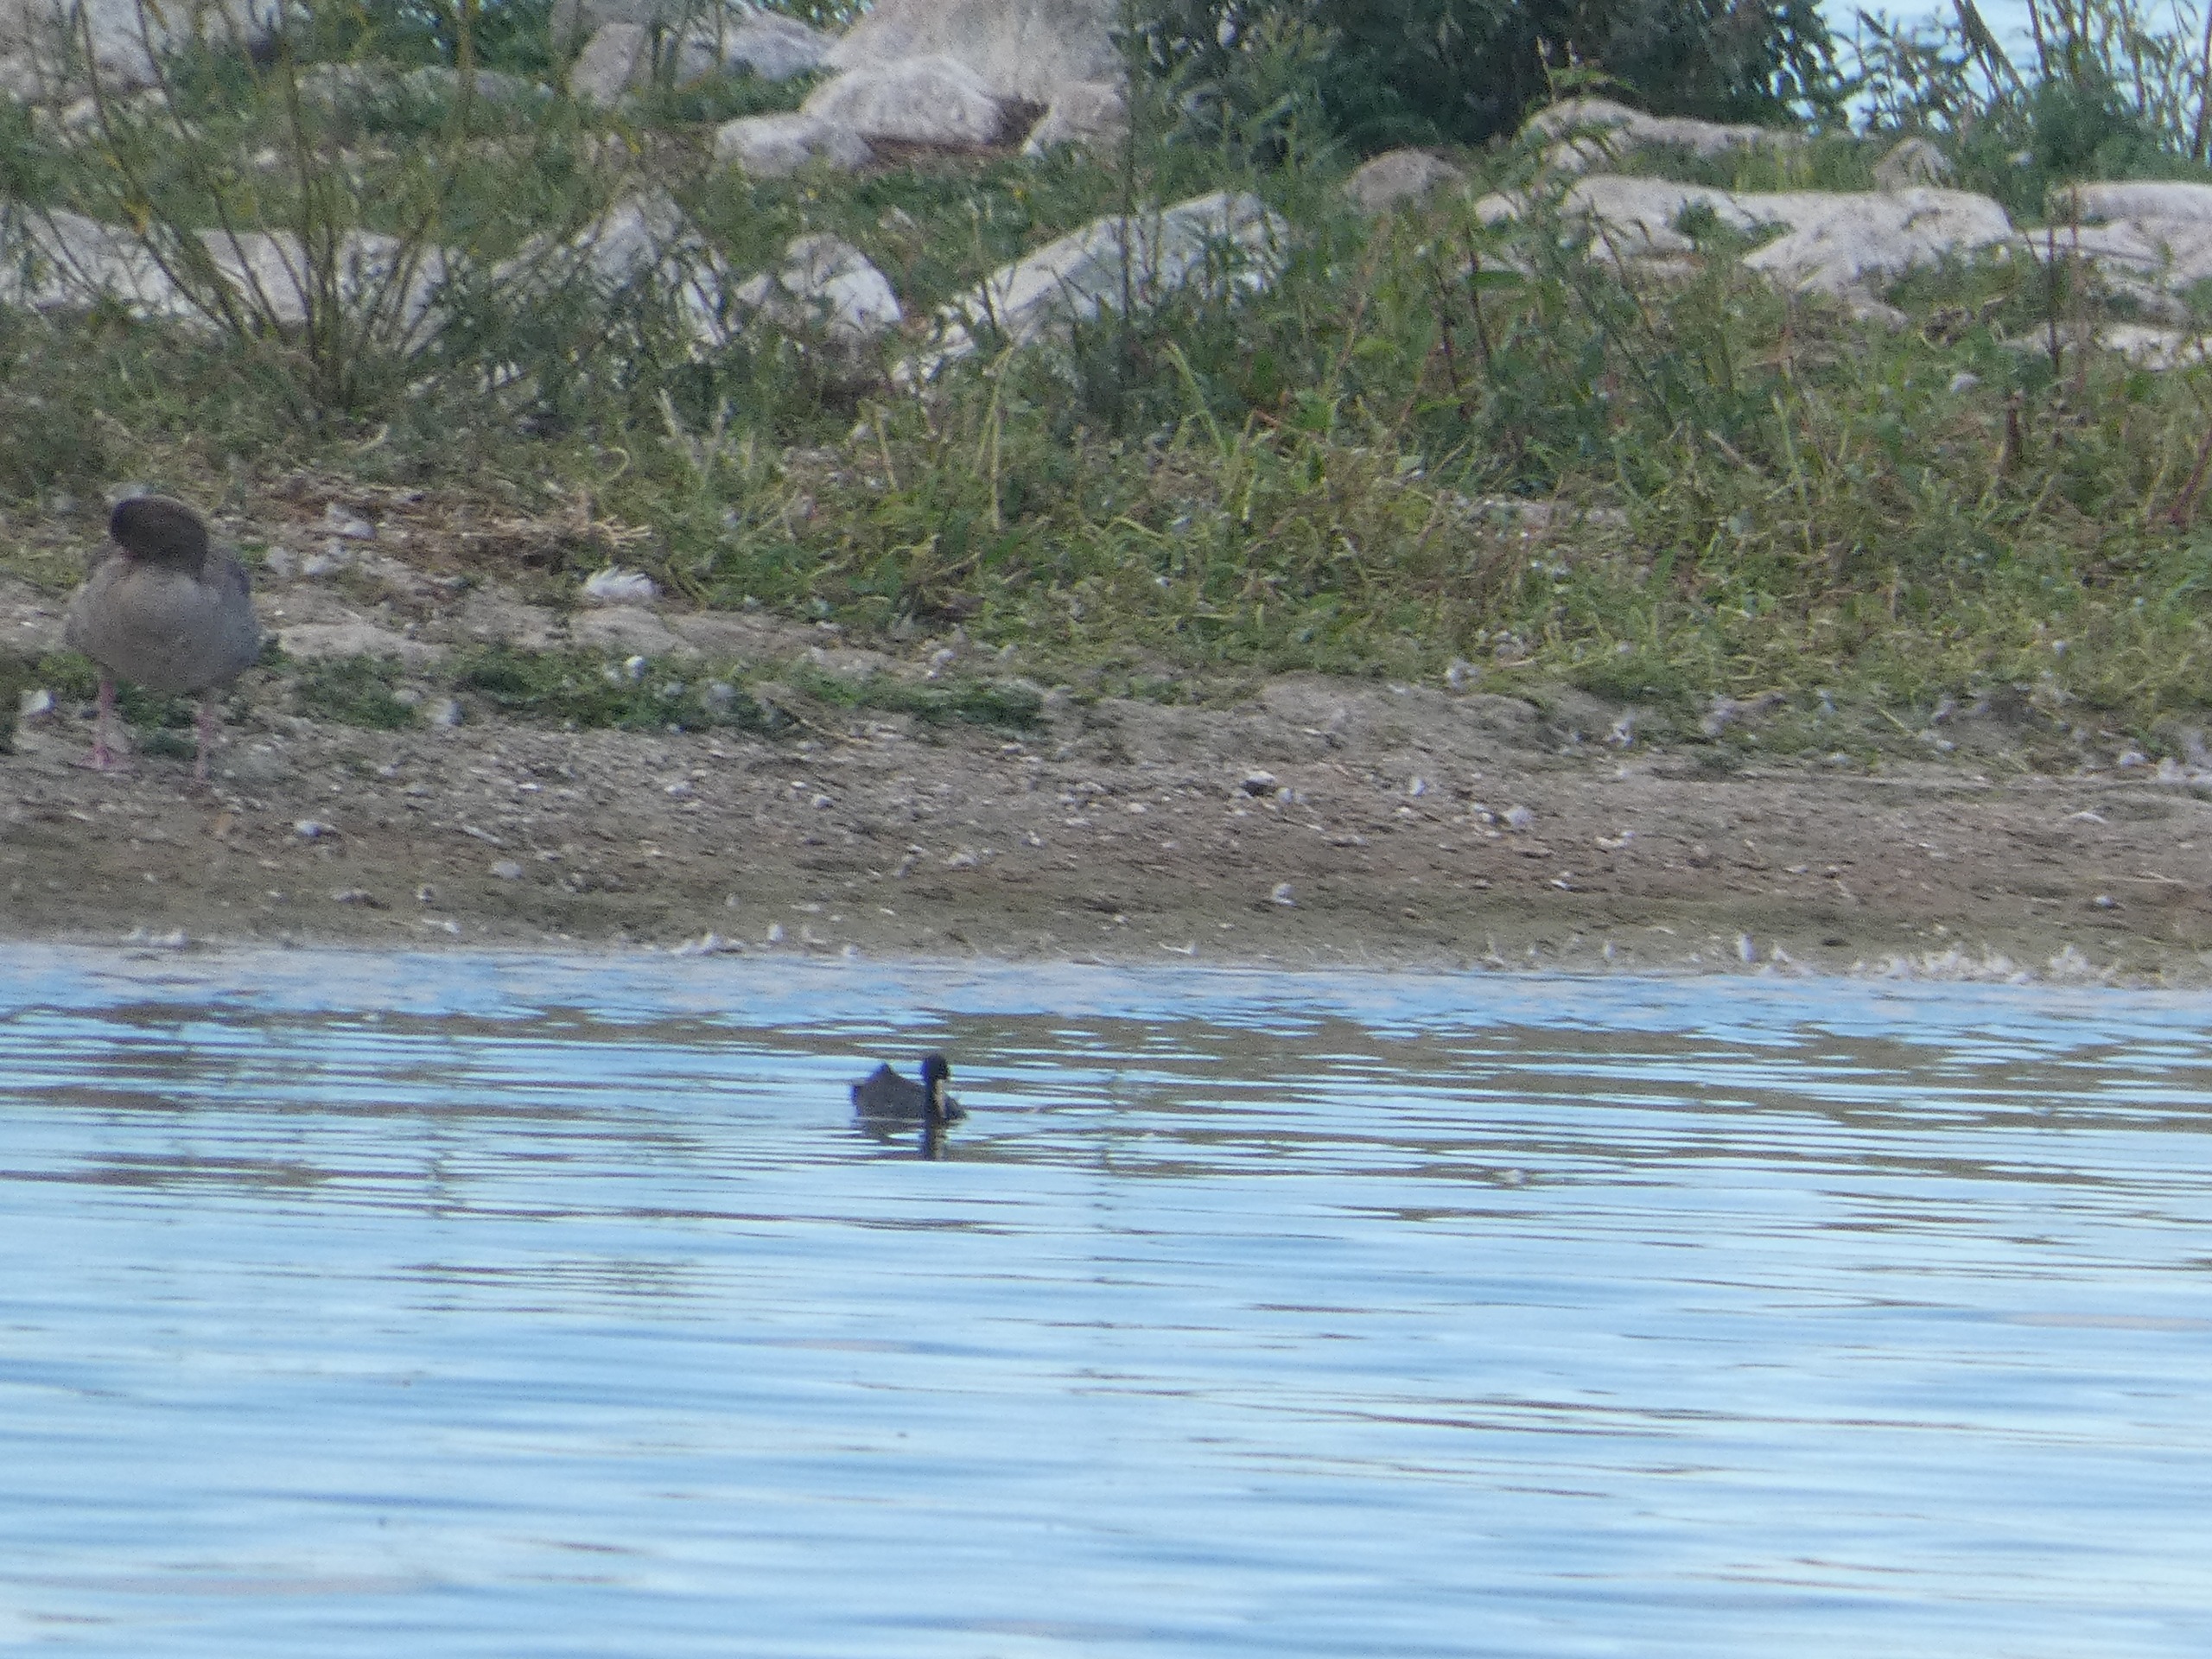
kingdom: Animalia
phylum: Chordata
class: Aves
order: Gruiformes
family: Rallidae
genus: Fulica
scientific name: Fulica atra
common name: Blishøne
